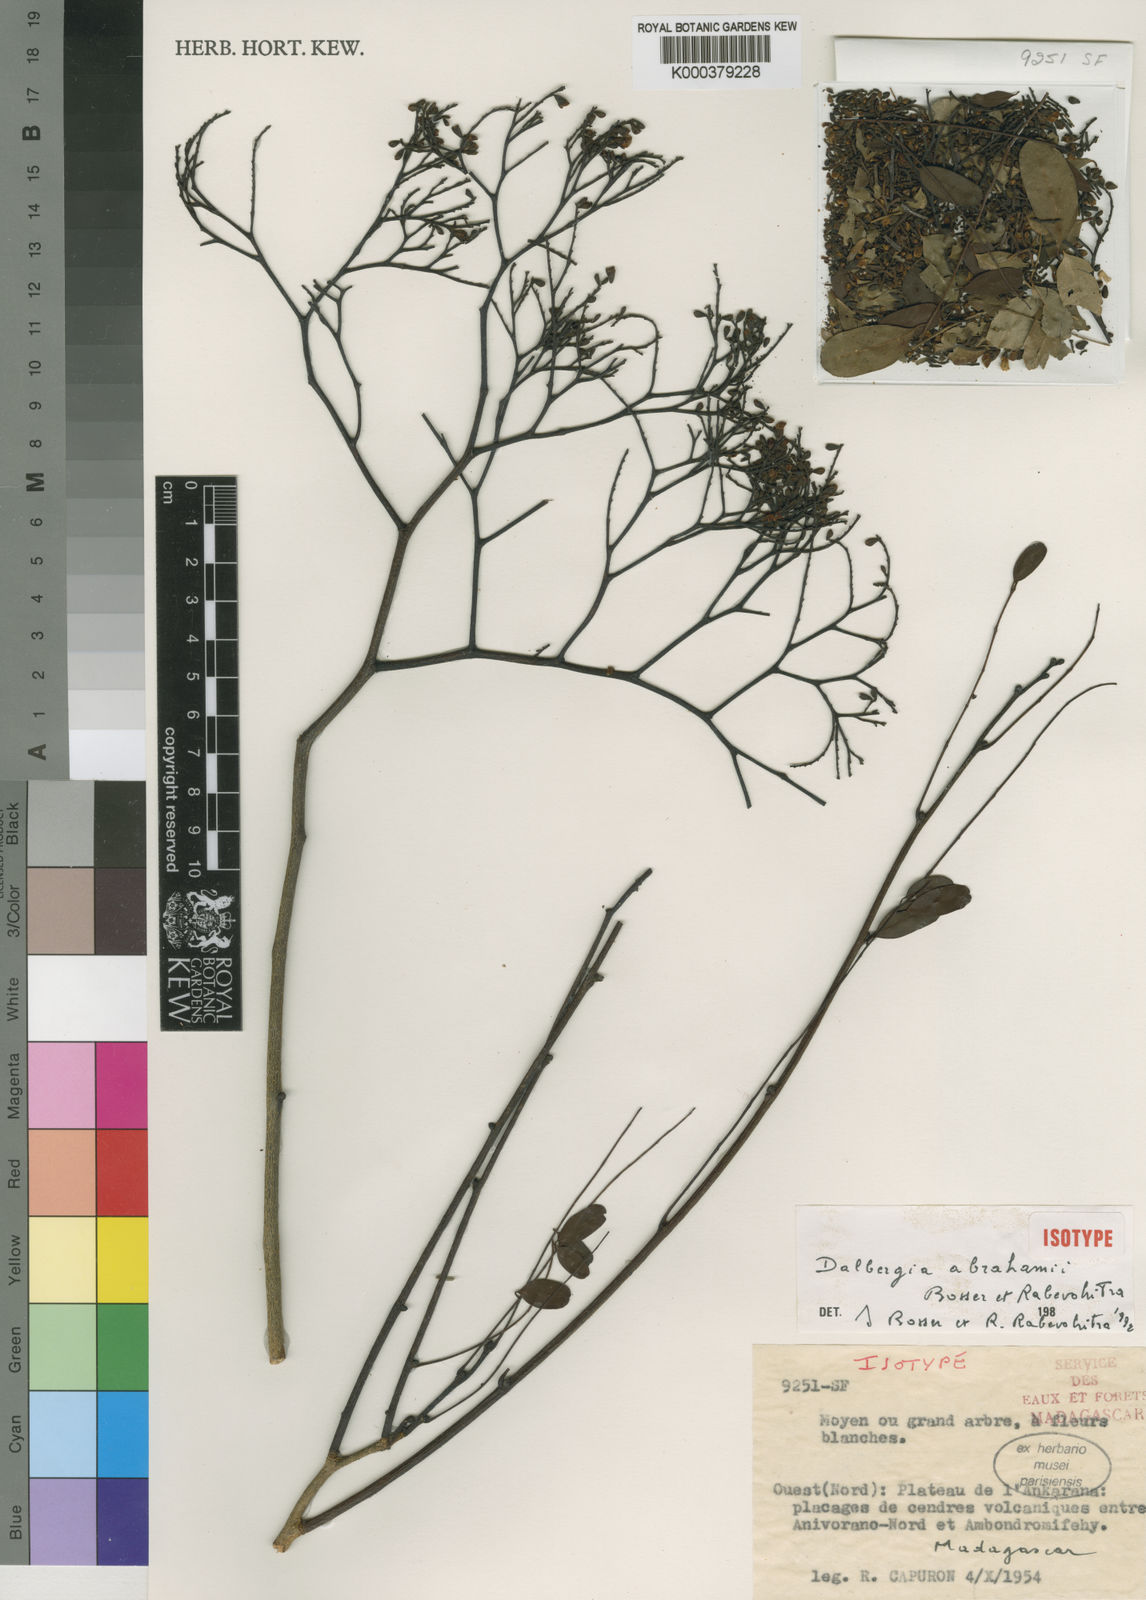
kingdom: Plantae
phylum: Tracheophyta
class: Magnoliopsida
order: Fabales
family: Fabaceae
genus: Dalbergia
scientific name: Dalbergia abrahamii
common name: Rosewood
